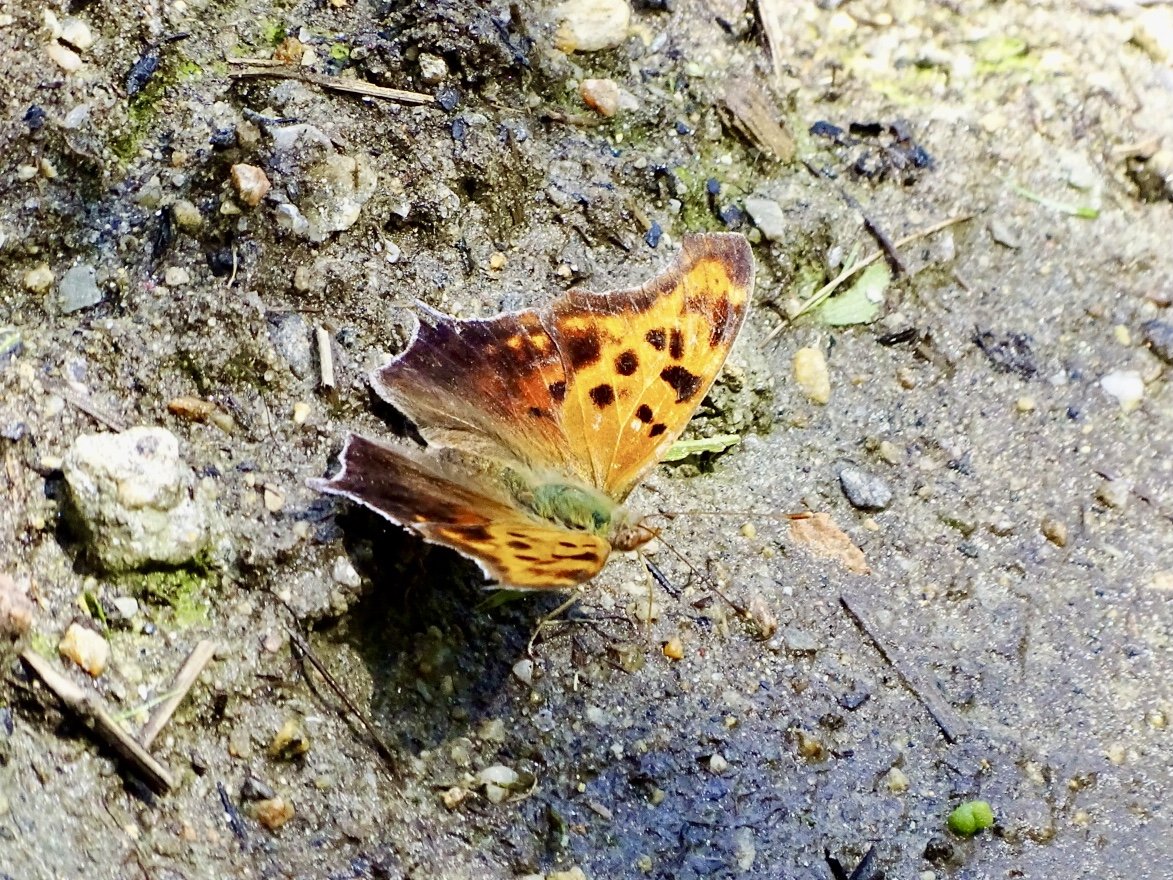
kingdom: Animalia
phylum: Arthropoda
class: Insecta
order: Lepidoptera
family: Nymphalidae
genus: Polygonia
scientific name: Polygonia interrogationis
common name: Question Mark
